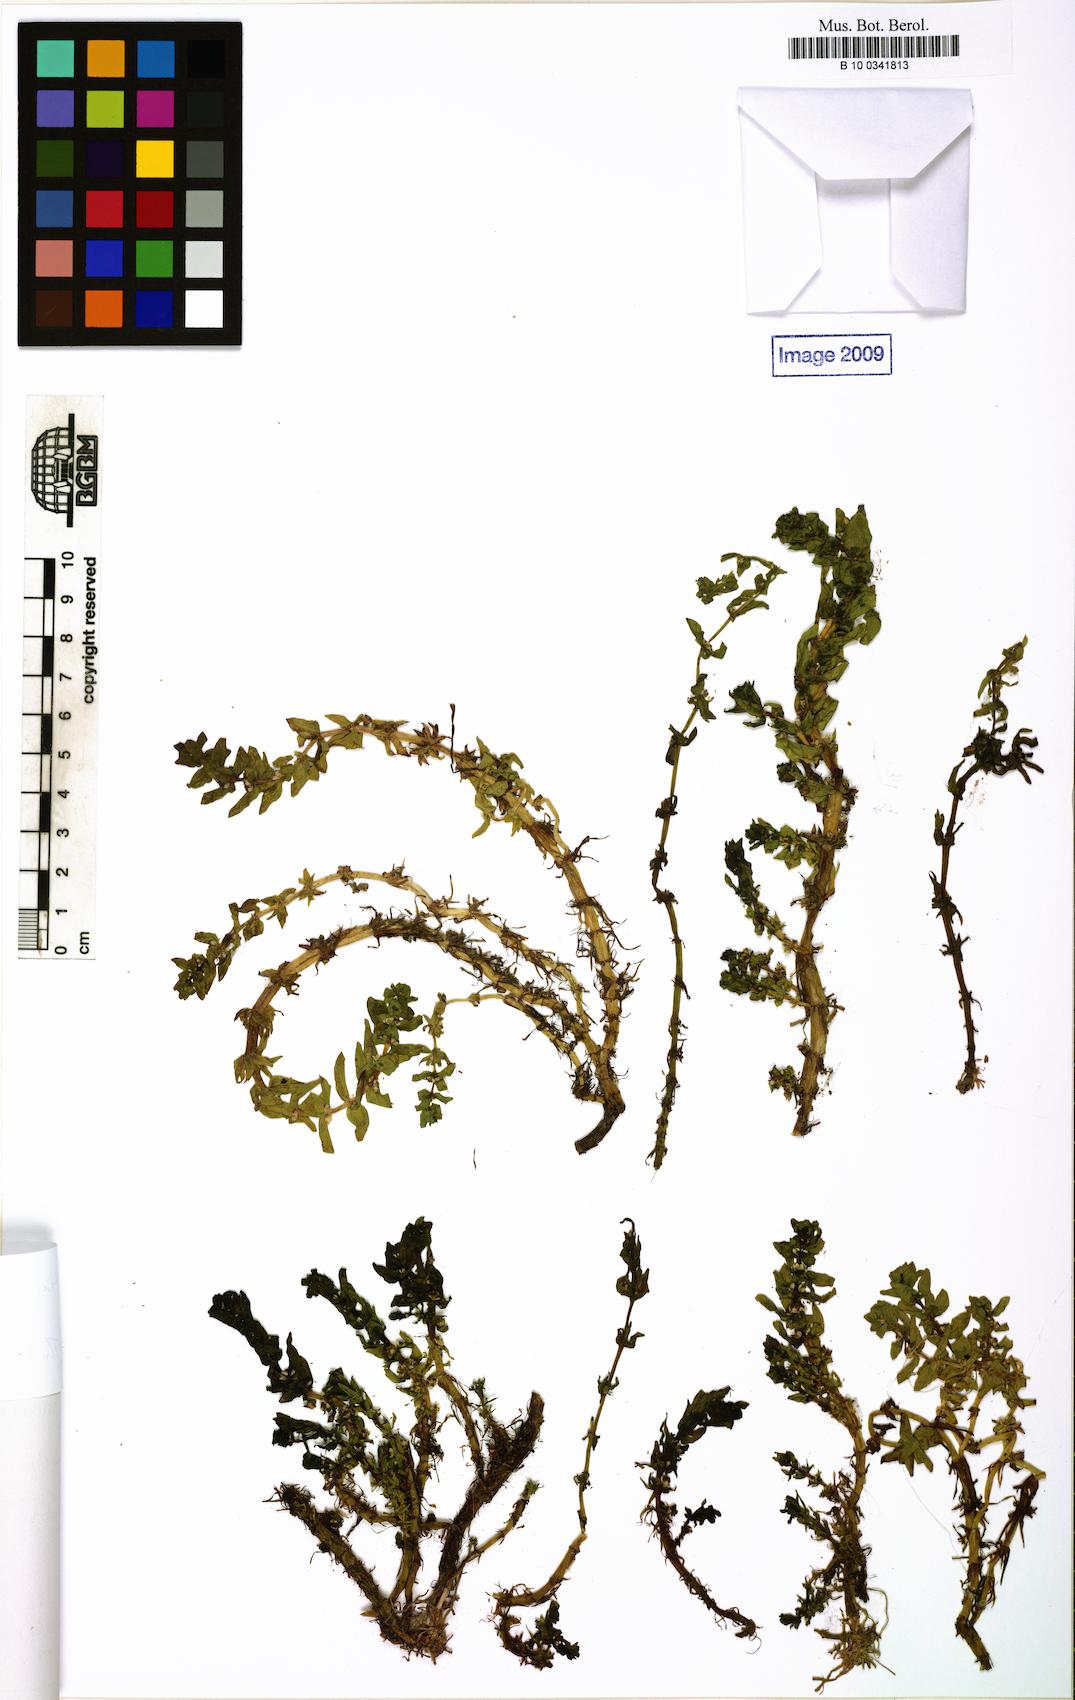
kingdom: Plantae
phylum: Tracheophyta
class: Magnoliopsida
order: Malpighiales
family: Elatinaceae
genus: Elatine
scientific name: Elatine alsinastrum
